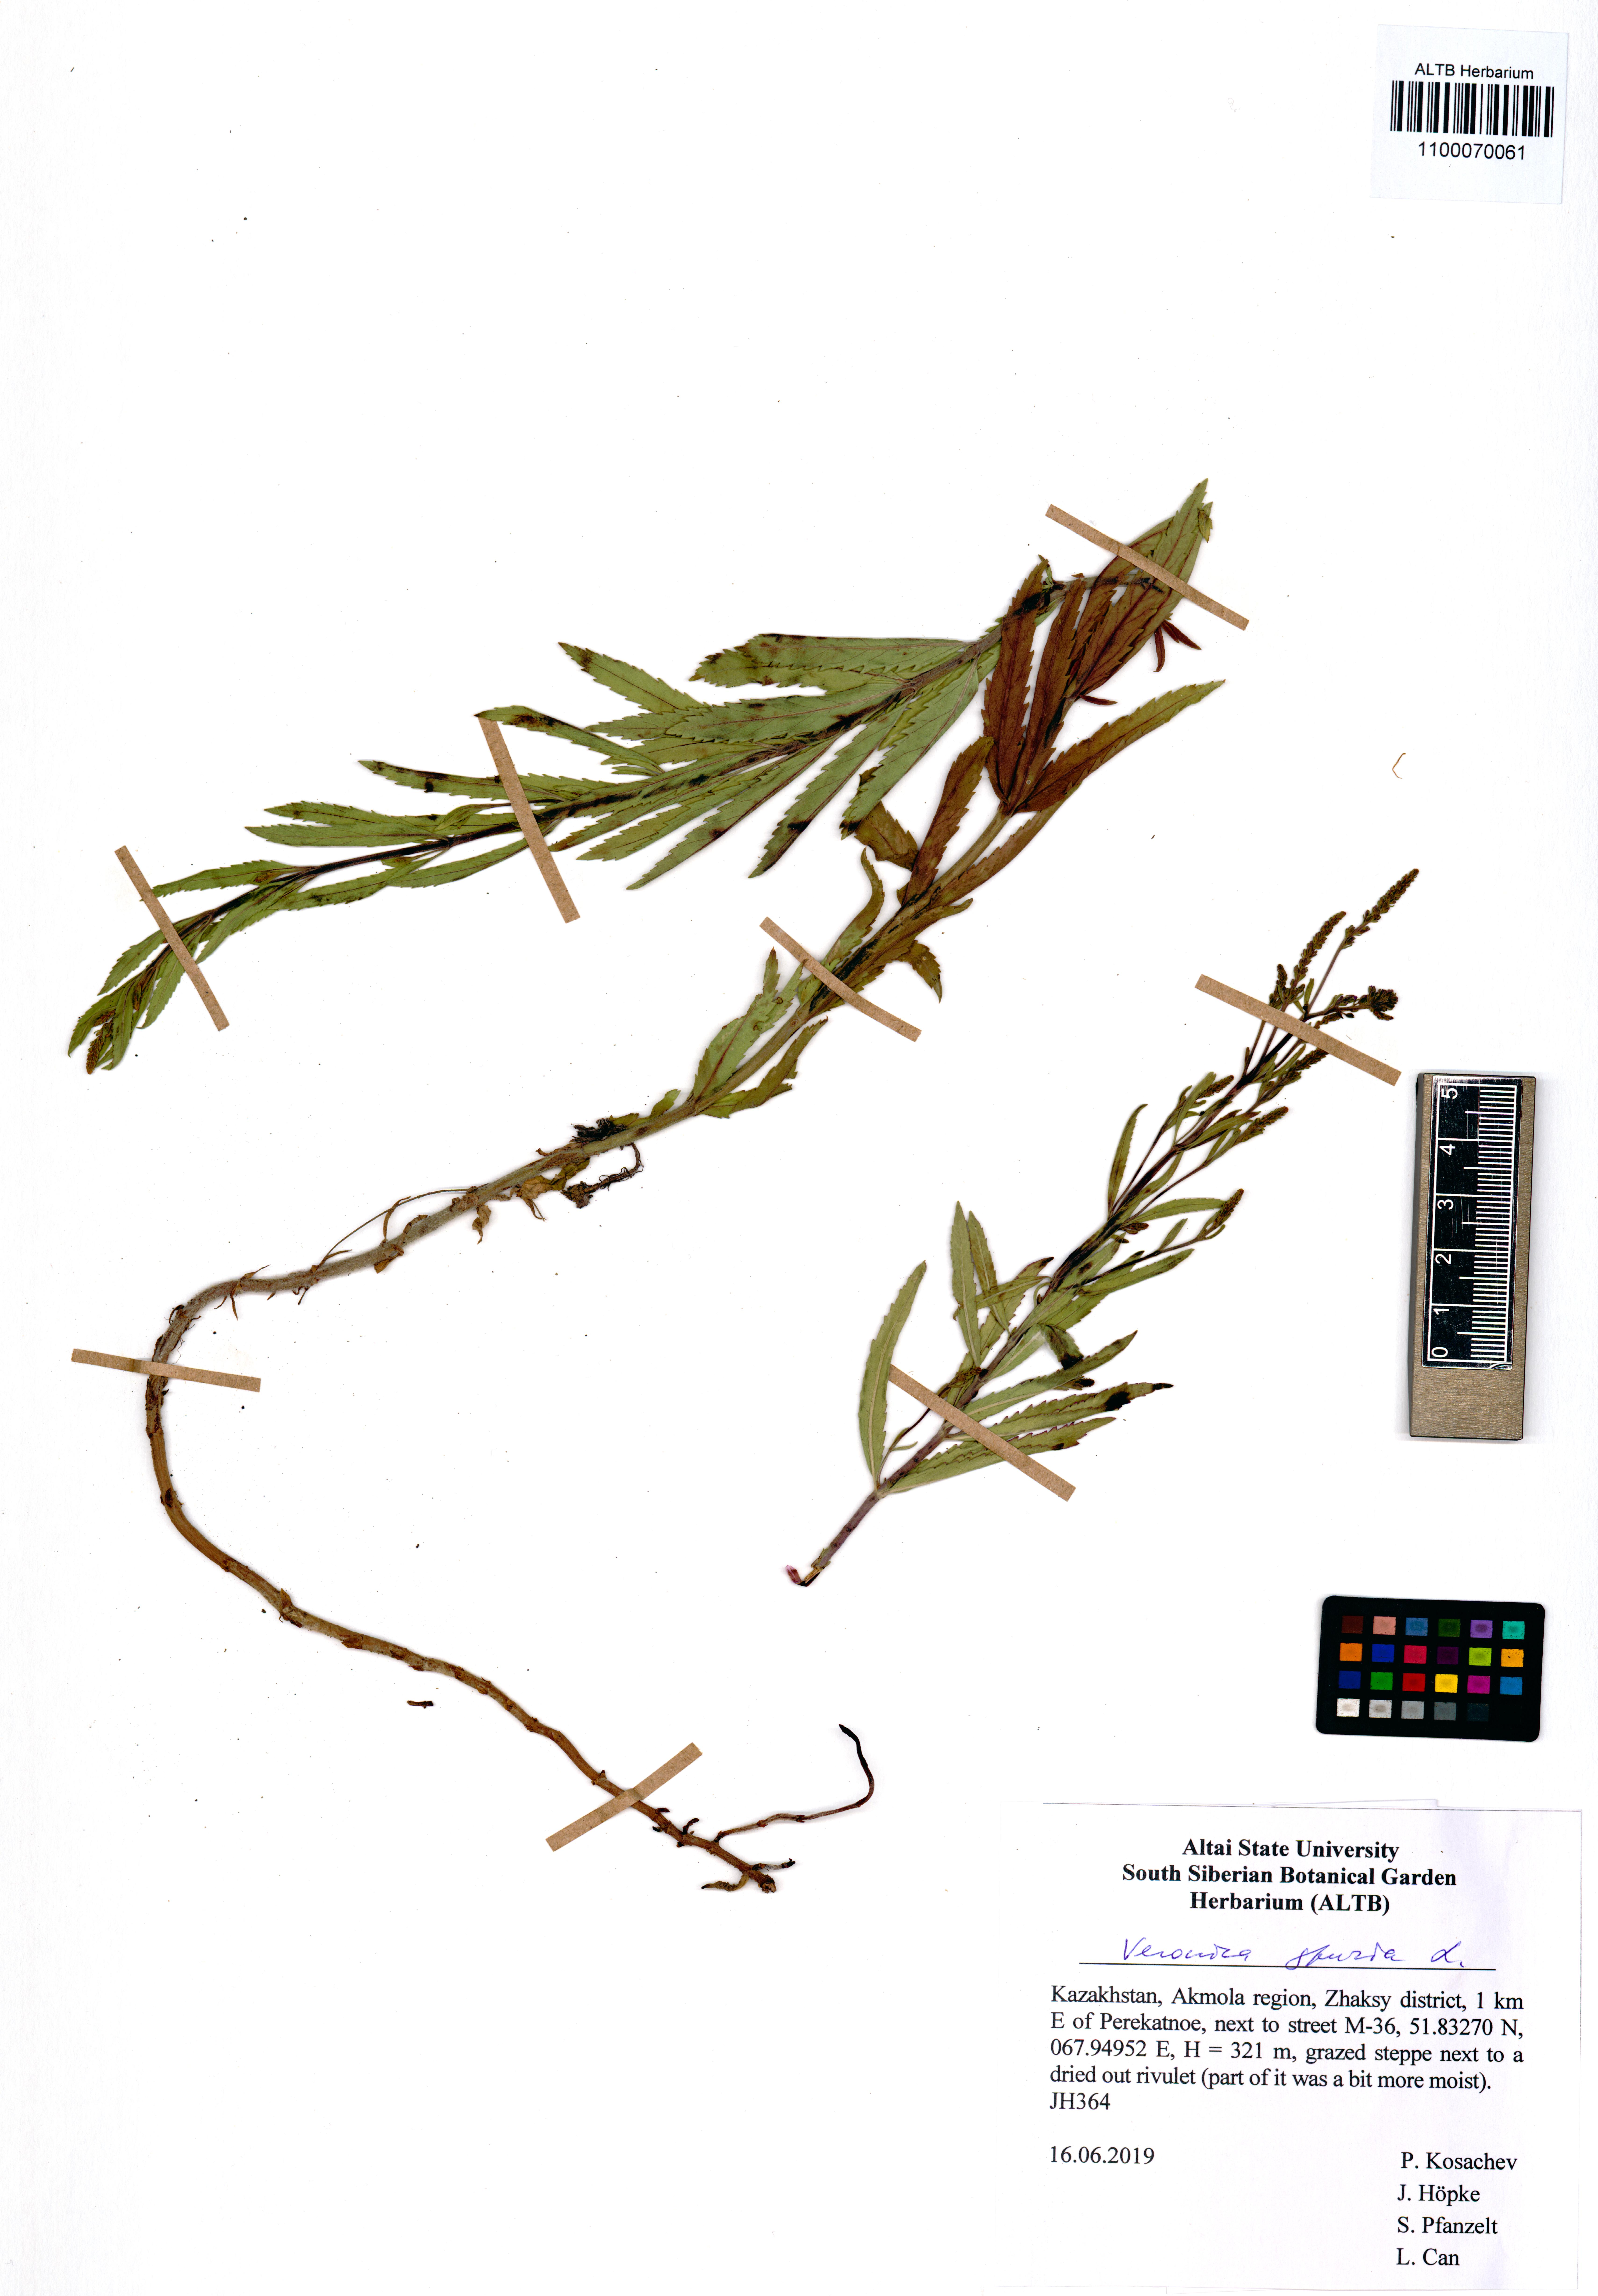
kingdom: Plantae
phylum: Tracheophyta
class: Magnoliopsida
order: Lamiales
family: Plantaginaceae
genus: Veronica
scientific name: Veronica spuria
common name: Bastard speedwell
